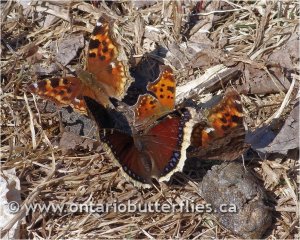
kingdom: Animalia
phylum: Arthropoda
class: Insecta
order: Lepidoptera
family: Nymphalidae
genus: Polygonia
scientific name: Polygonia vaualbum
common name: Compton Tortoiseshell
